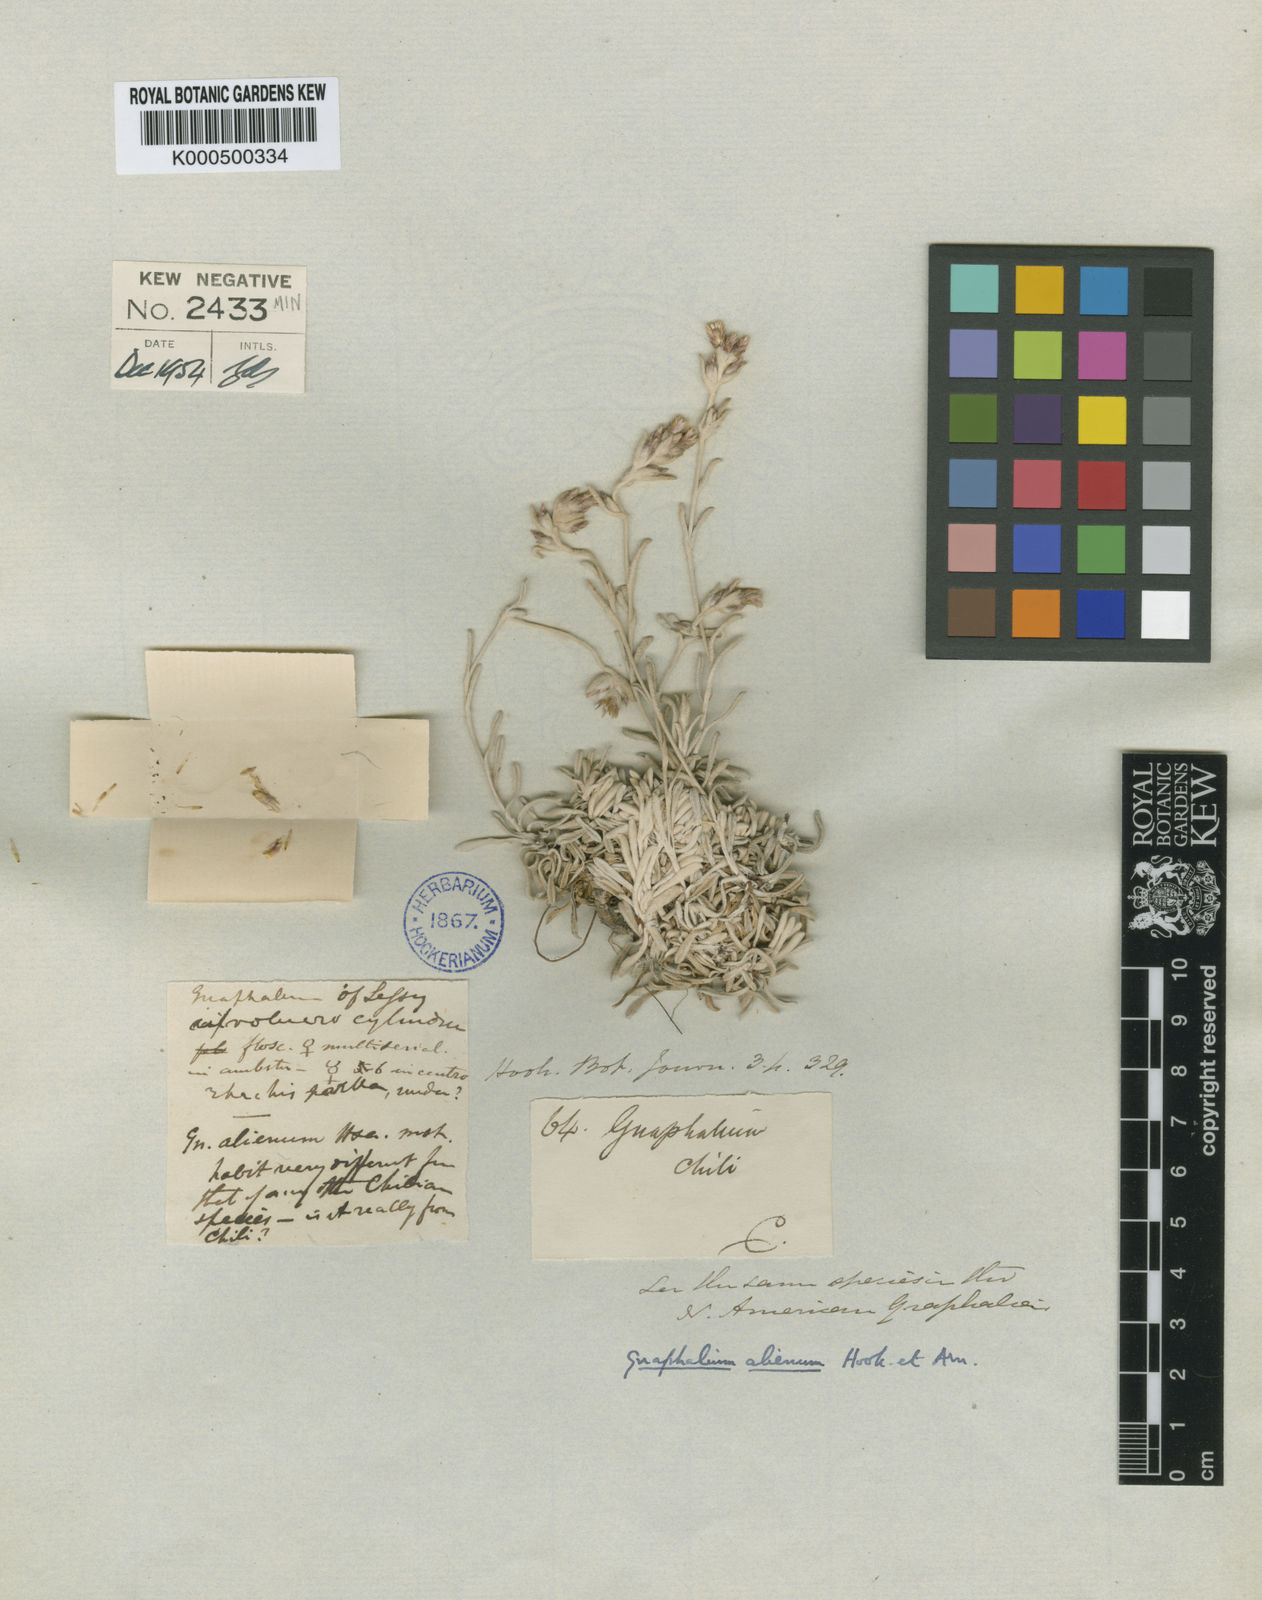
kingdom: Plantae
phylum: Tracheophyta
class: Magnoliopsida
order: Asterales
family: Asteraceae
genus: Gamochaeta
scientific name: Gamochaeta aliena
